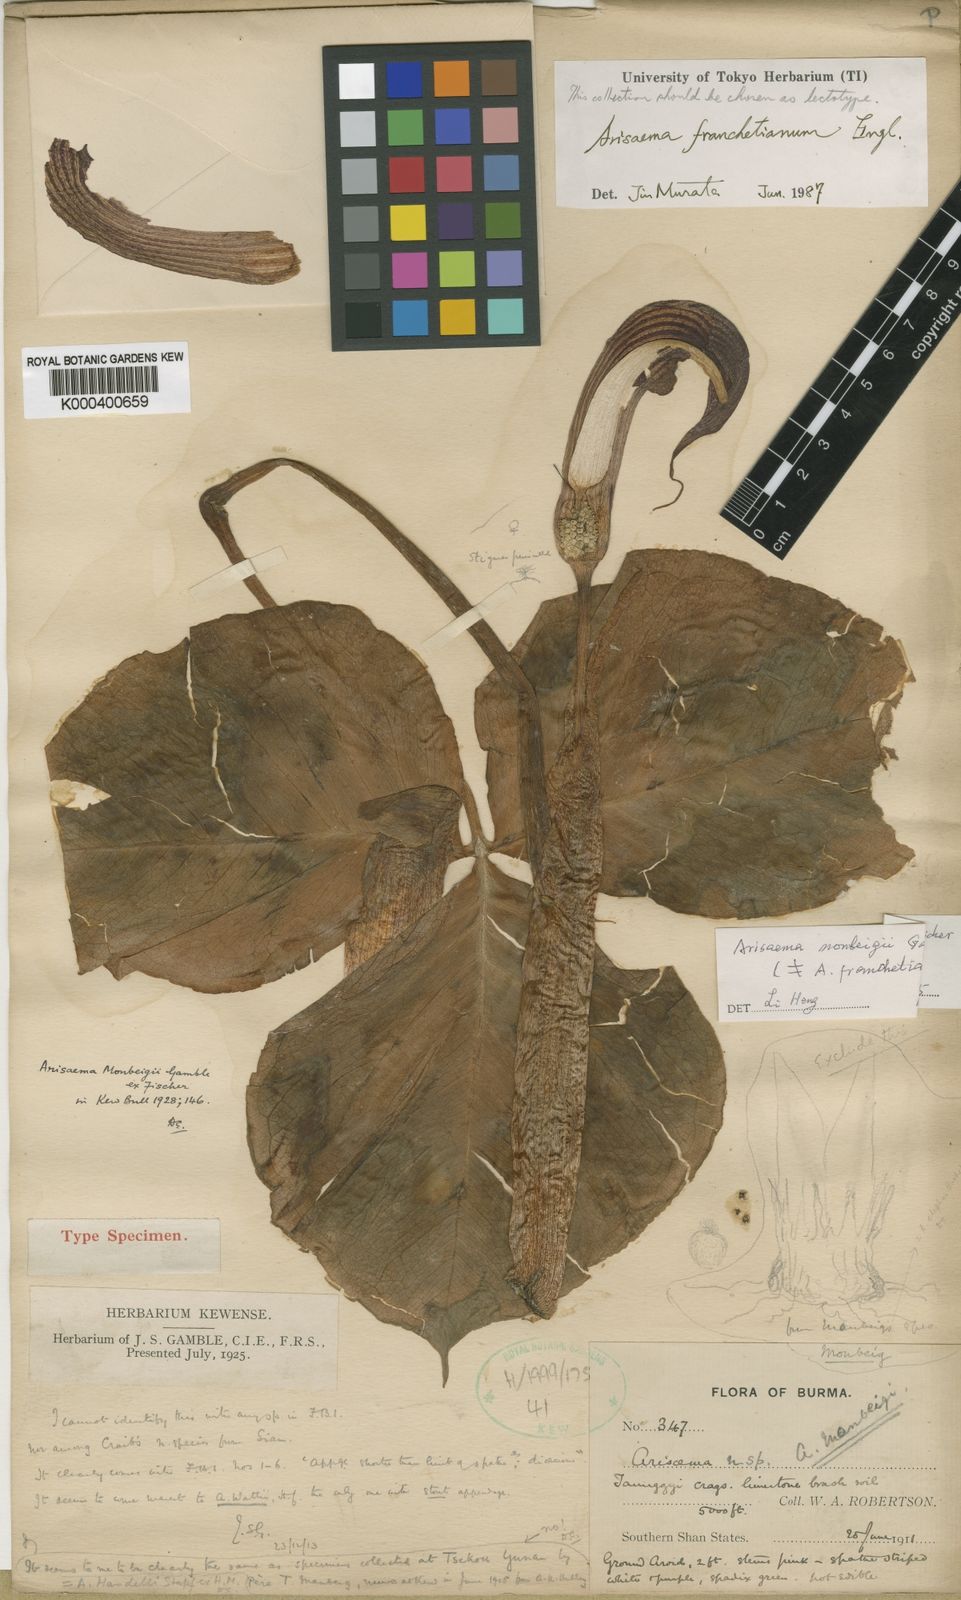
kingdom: Plantae
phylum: Tracheophyta
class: Liliopsida
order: Alismatales
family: Araceae
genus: Arisaema
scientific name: Arisaema franchetianum
